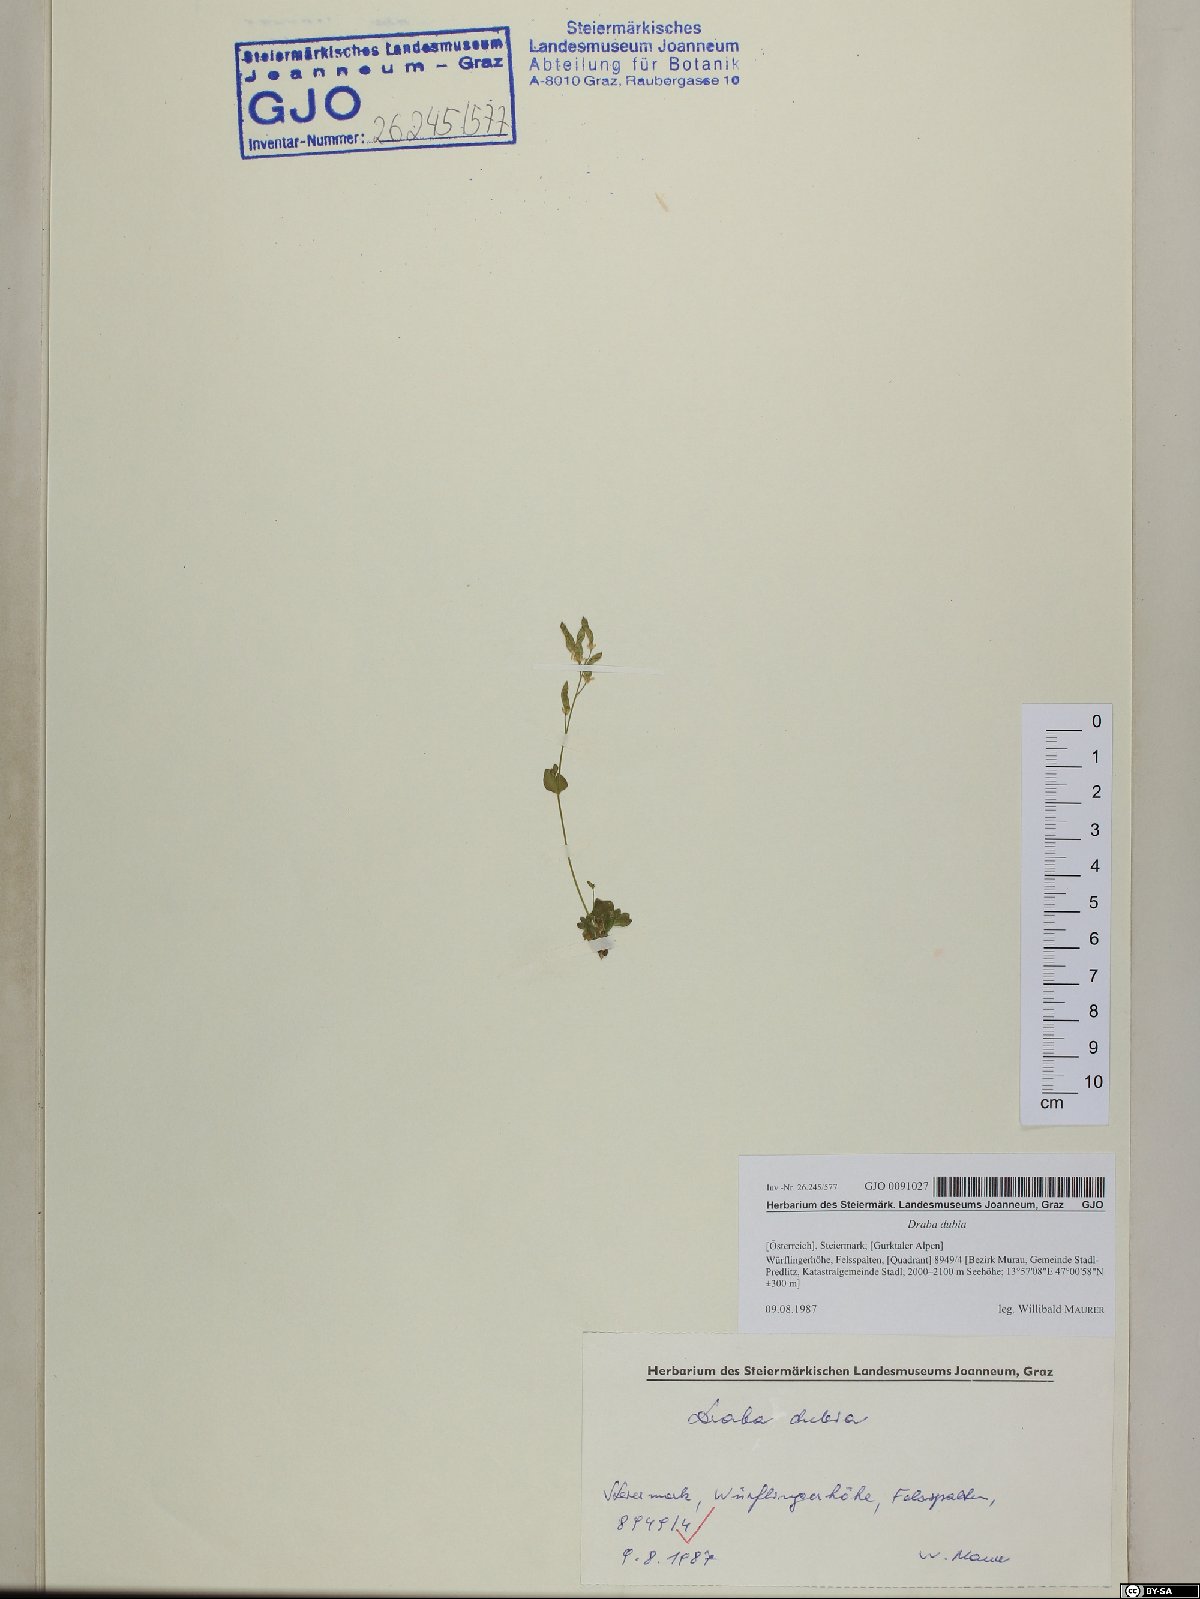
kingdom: Plantae
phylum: Tracheophyta
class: Magnoliopsida
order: Brassicales
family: Brassicaceae
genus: Draba
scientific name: Draba dubia
